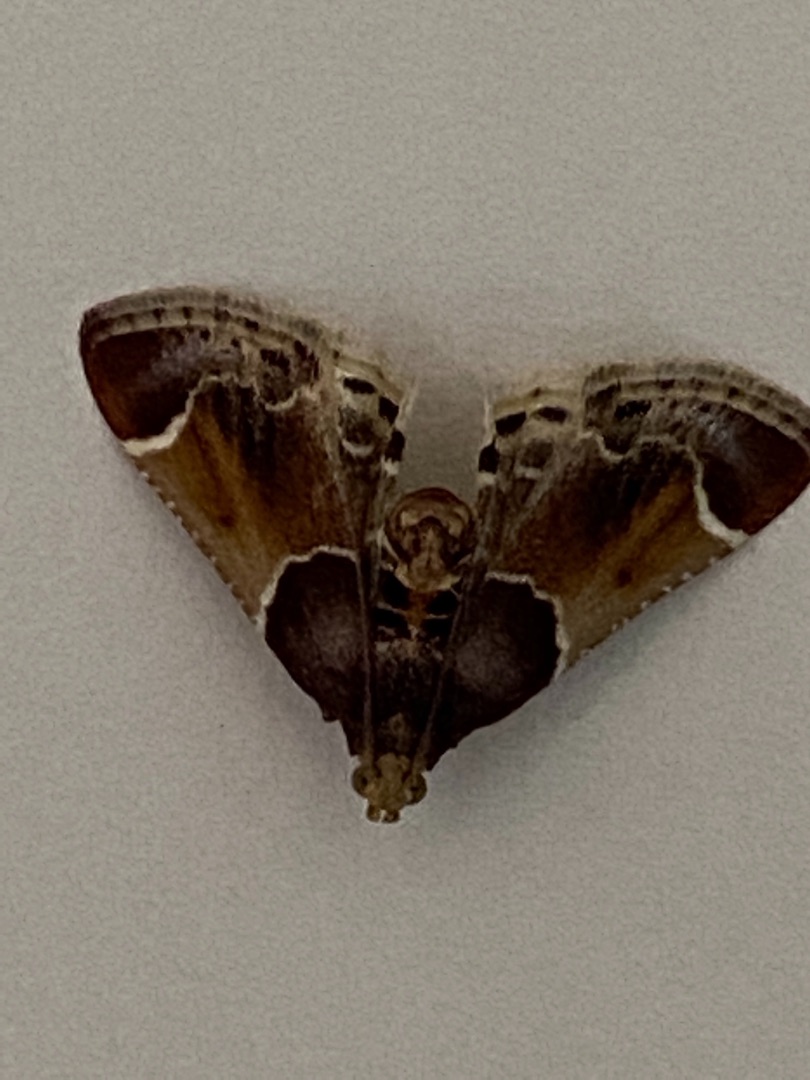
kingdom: Animalia
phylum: Arthropoda
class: Insecta
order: Lepidoptera
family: Pyralidae
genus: Pyralis
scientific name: Pyralis farinalis
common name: Stort melmøl
